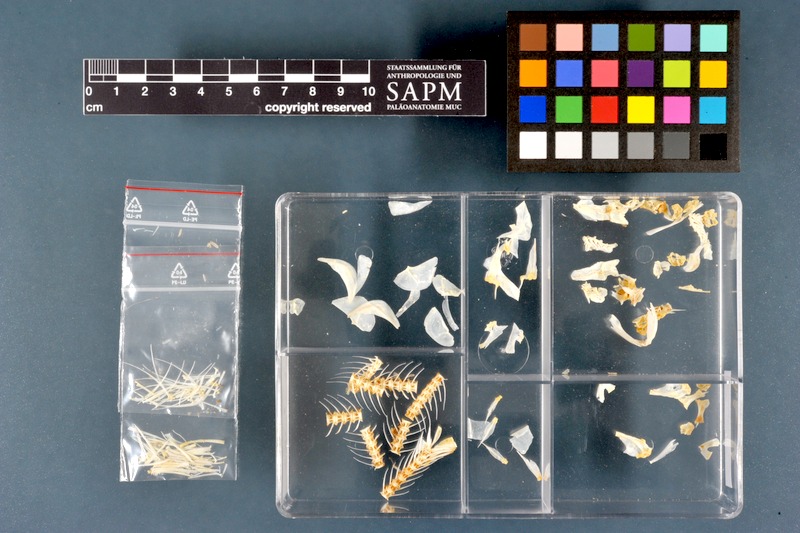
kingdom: Animalia
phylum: Chordata
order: Osteoglossiformes
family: Mormyridae
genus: Mormyrus
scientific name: Mormyrus kannume
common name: Elephant-snout fish
